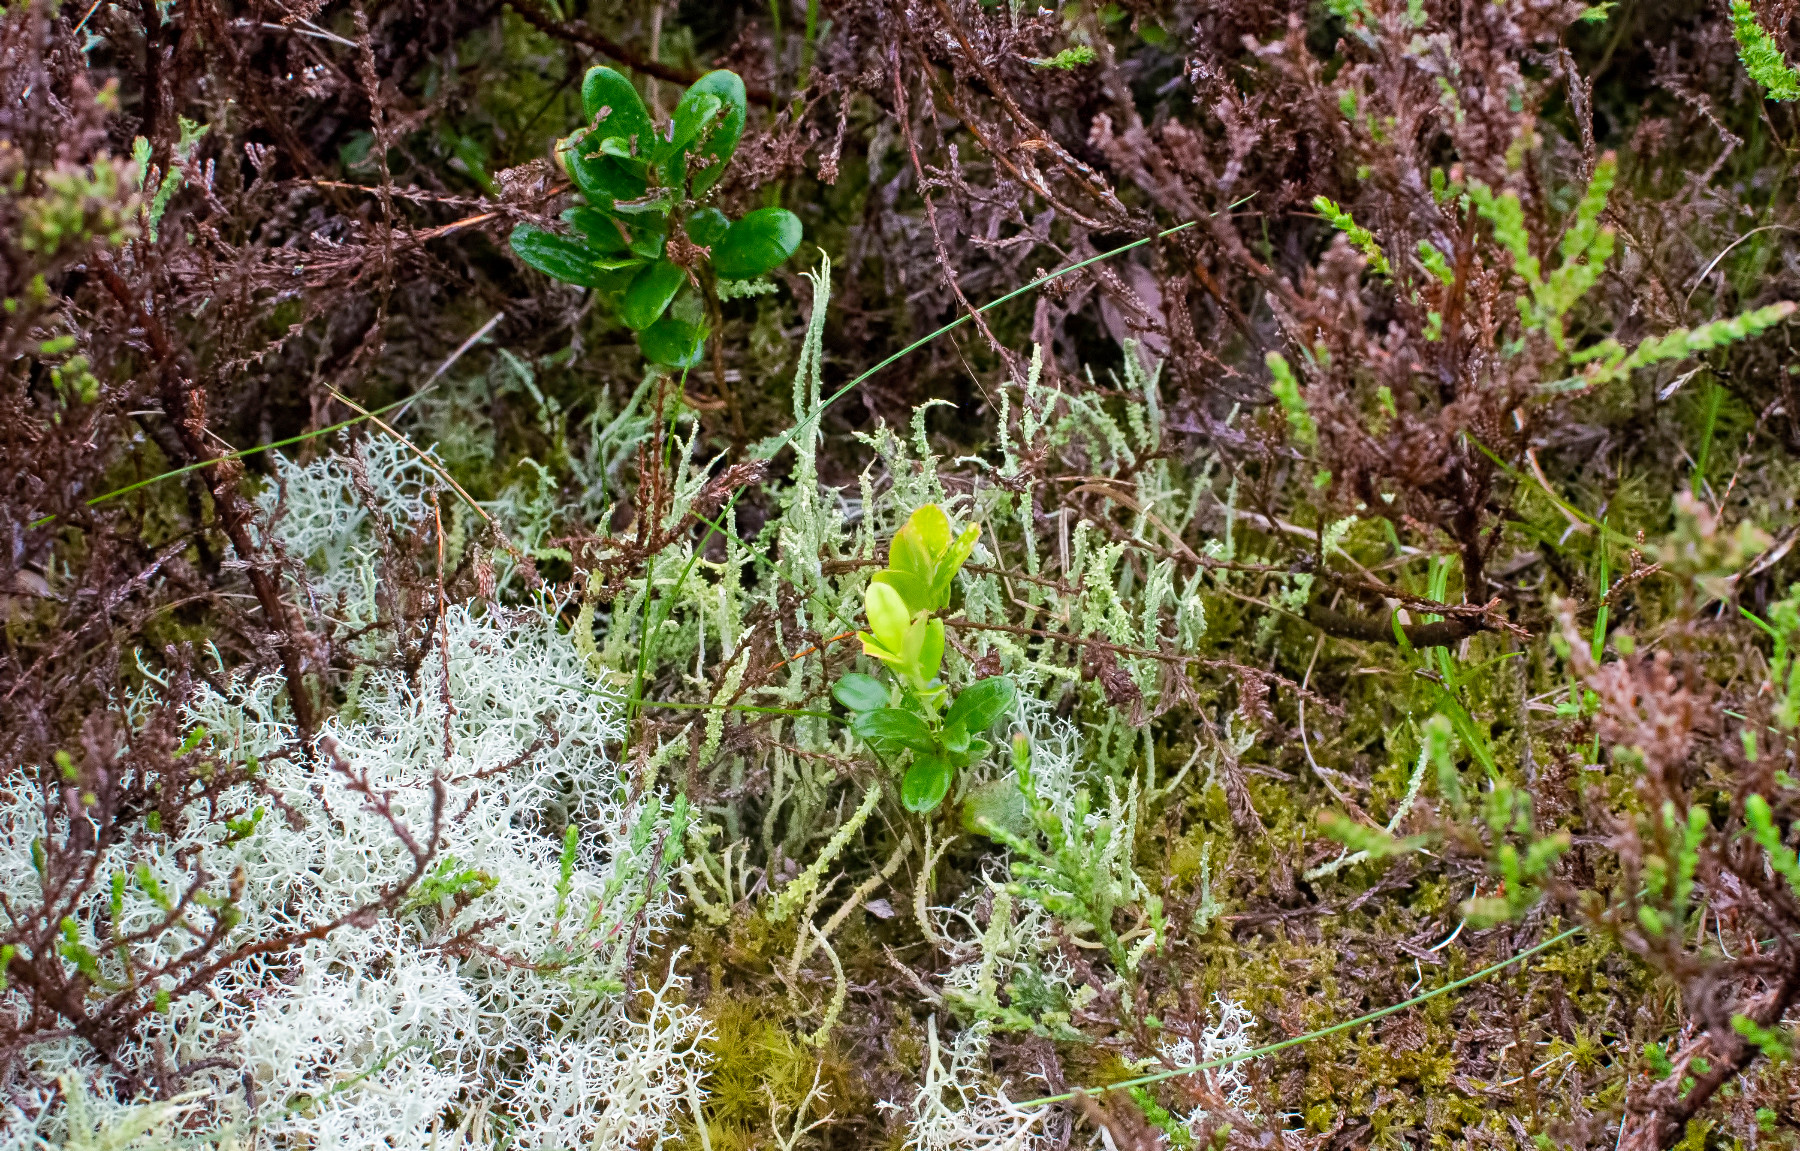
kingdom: Fungi
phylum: Ascomycota
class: Lecanoromycetes
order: Lecanorales
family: Cladoniaceae
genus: Cladonia
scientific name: Cladonia squamosa
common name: skælklædt bægerlav
